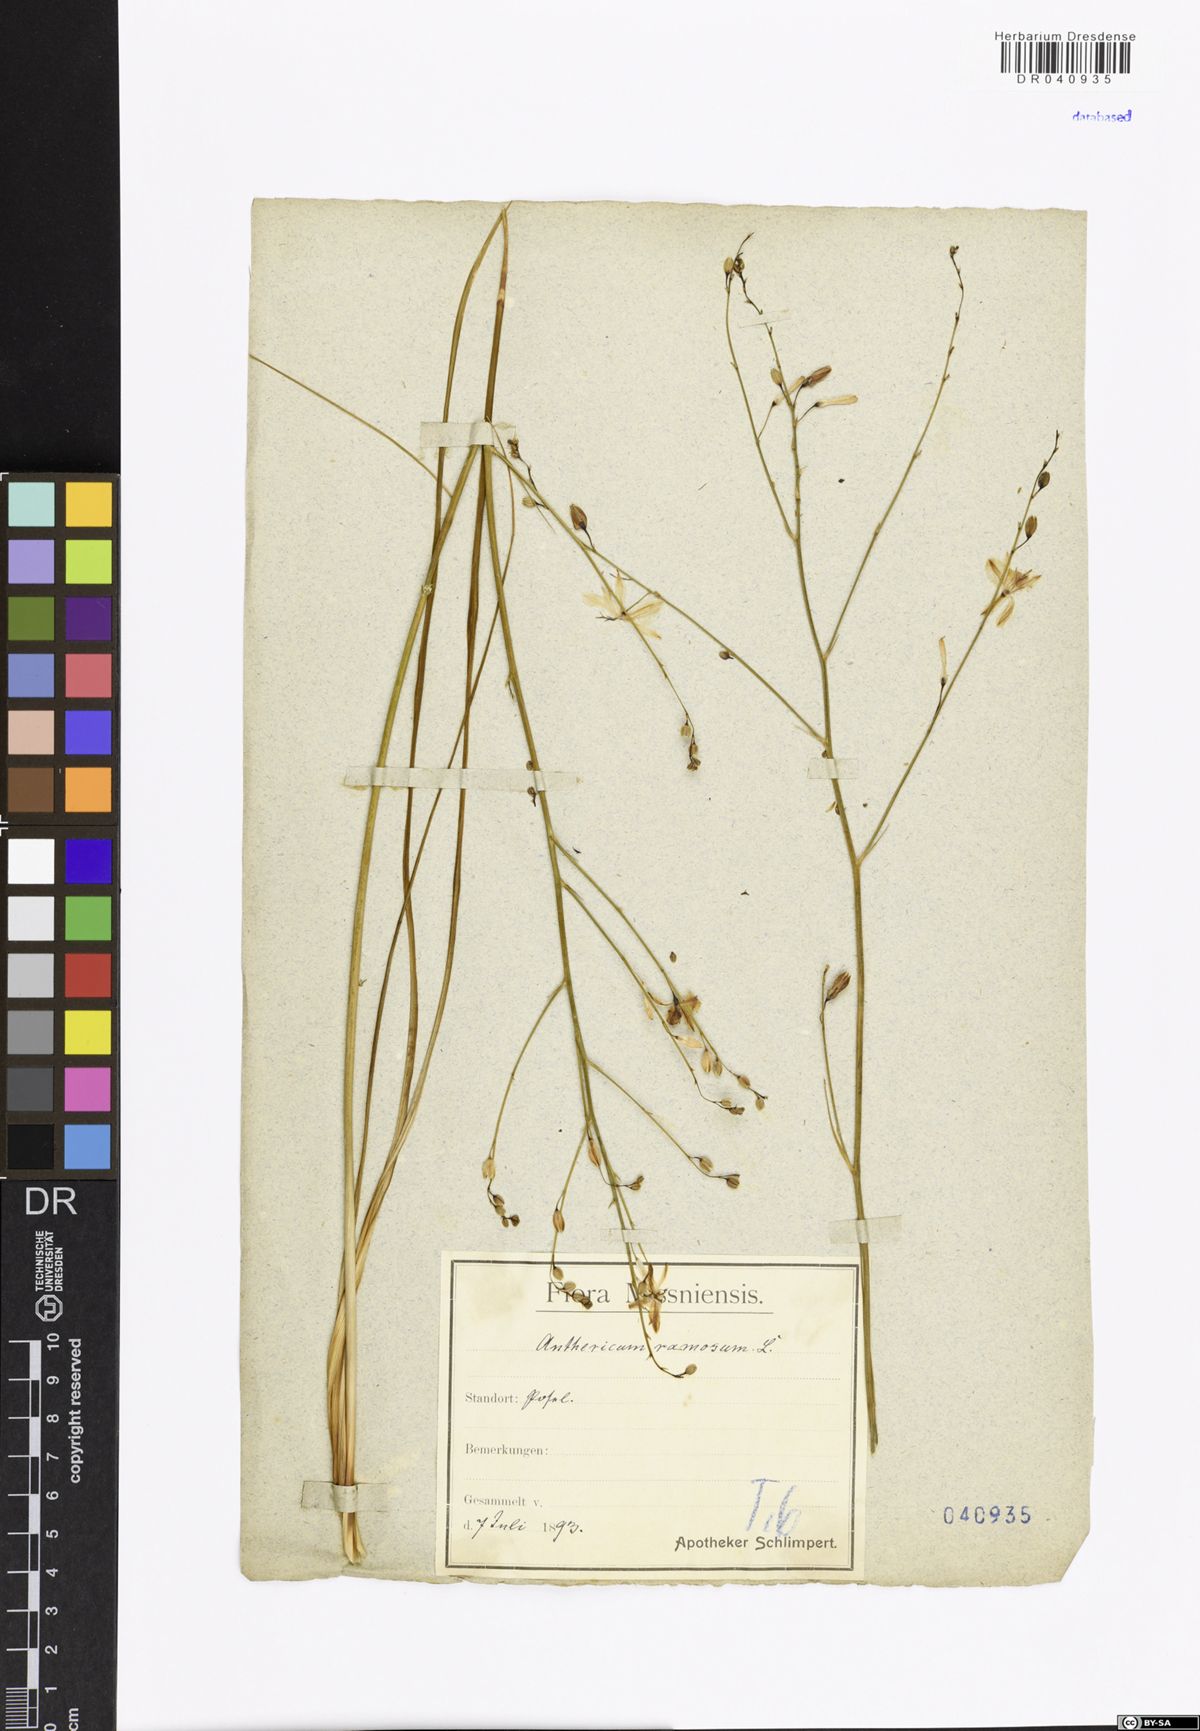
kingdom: Plantae
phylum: Tracheophyta
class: Liliopsida
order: Asparagales
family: Asparagaceae
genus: Anthericum
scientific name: Anthericum ramosum
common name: Branched st. bernard's-lily
